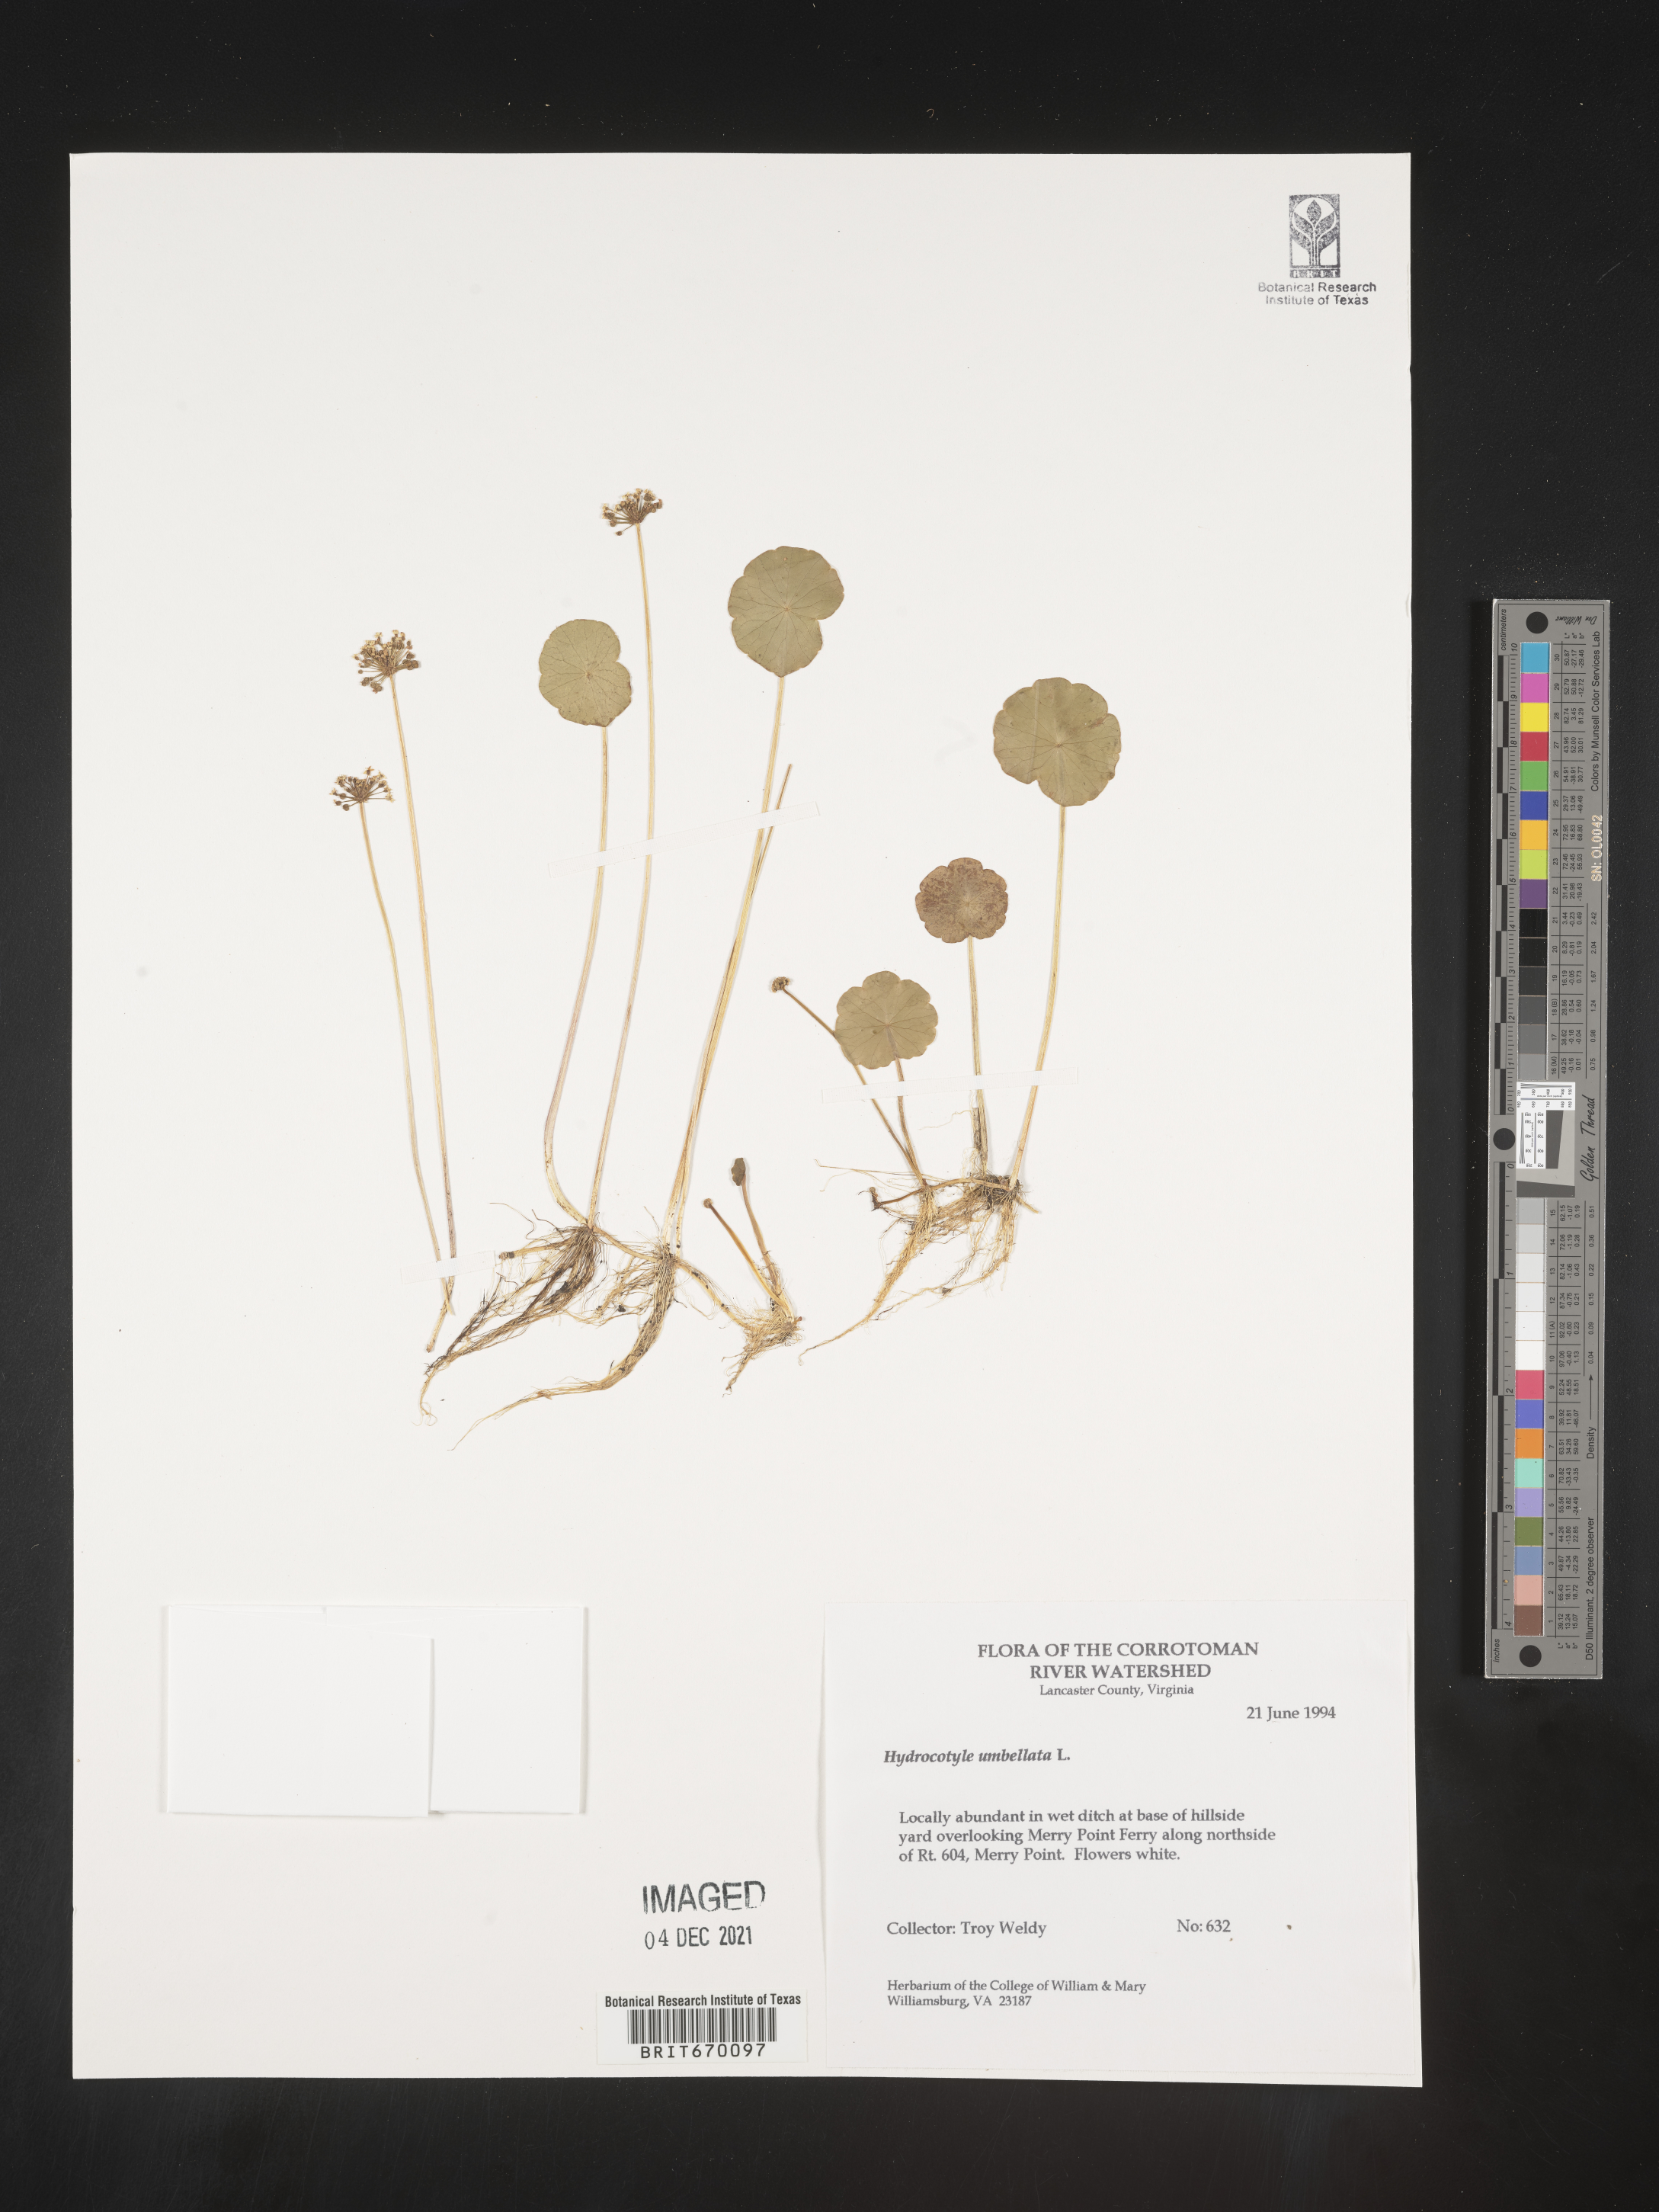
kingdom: Plantae
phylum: Tracheophyta
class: Magnoliopsida
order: Apiales
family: Araliaceae
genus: Hydrocotyle
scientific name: Hydrocotyle umbellata
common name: Water pennywort
